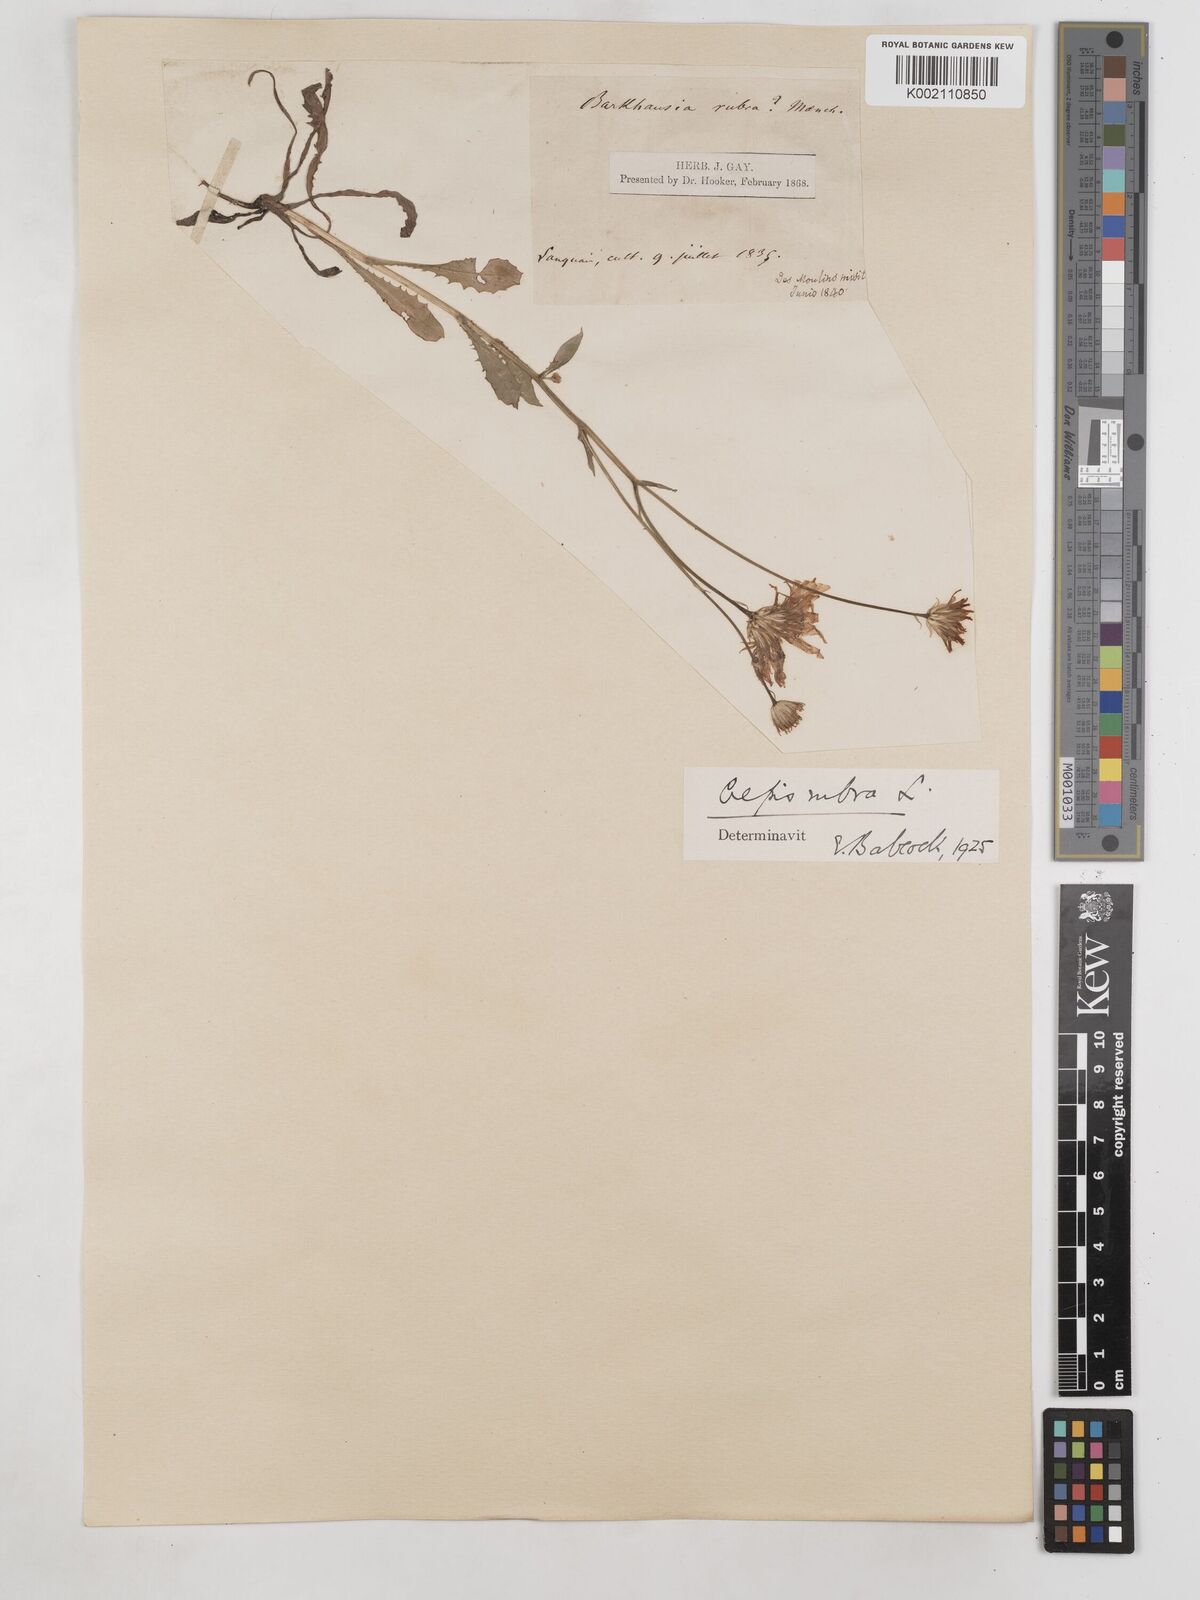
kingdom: Plantae
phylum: Tracheophyta
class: Magnoliopsida
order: Asterales
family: Asteraceae
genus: Crepis
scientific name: Crepis rubra
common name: Pink hawk's-beard
